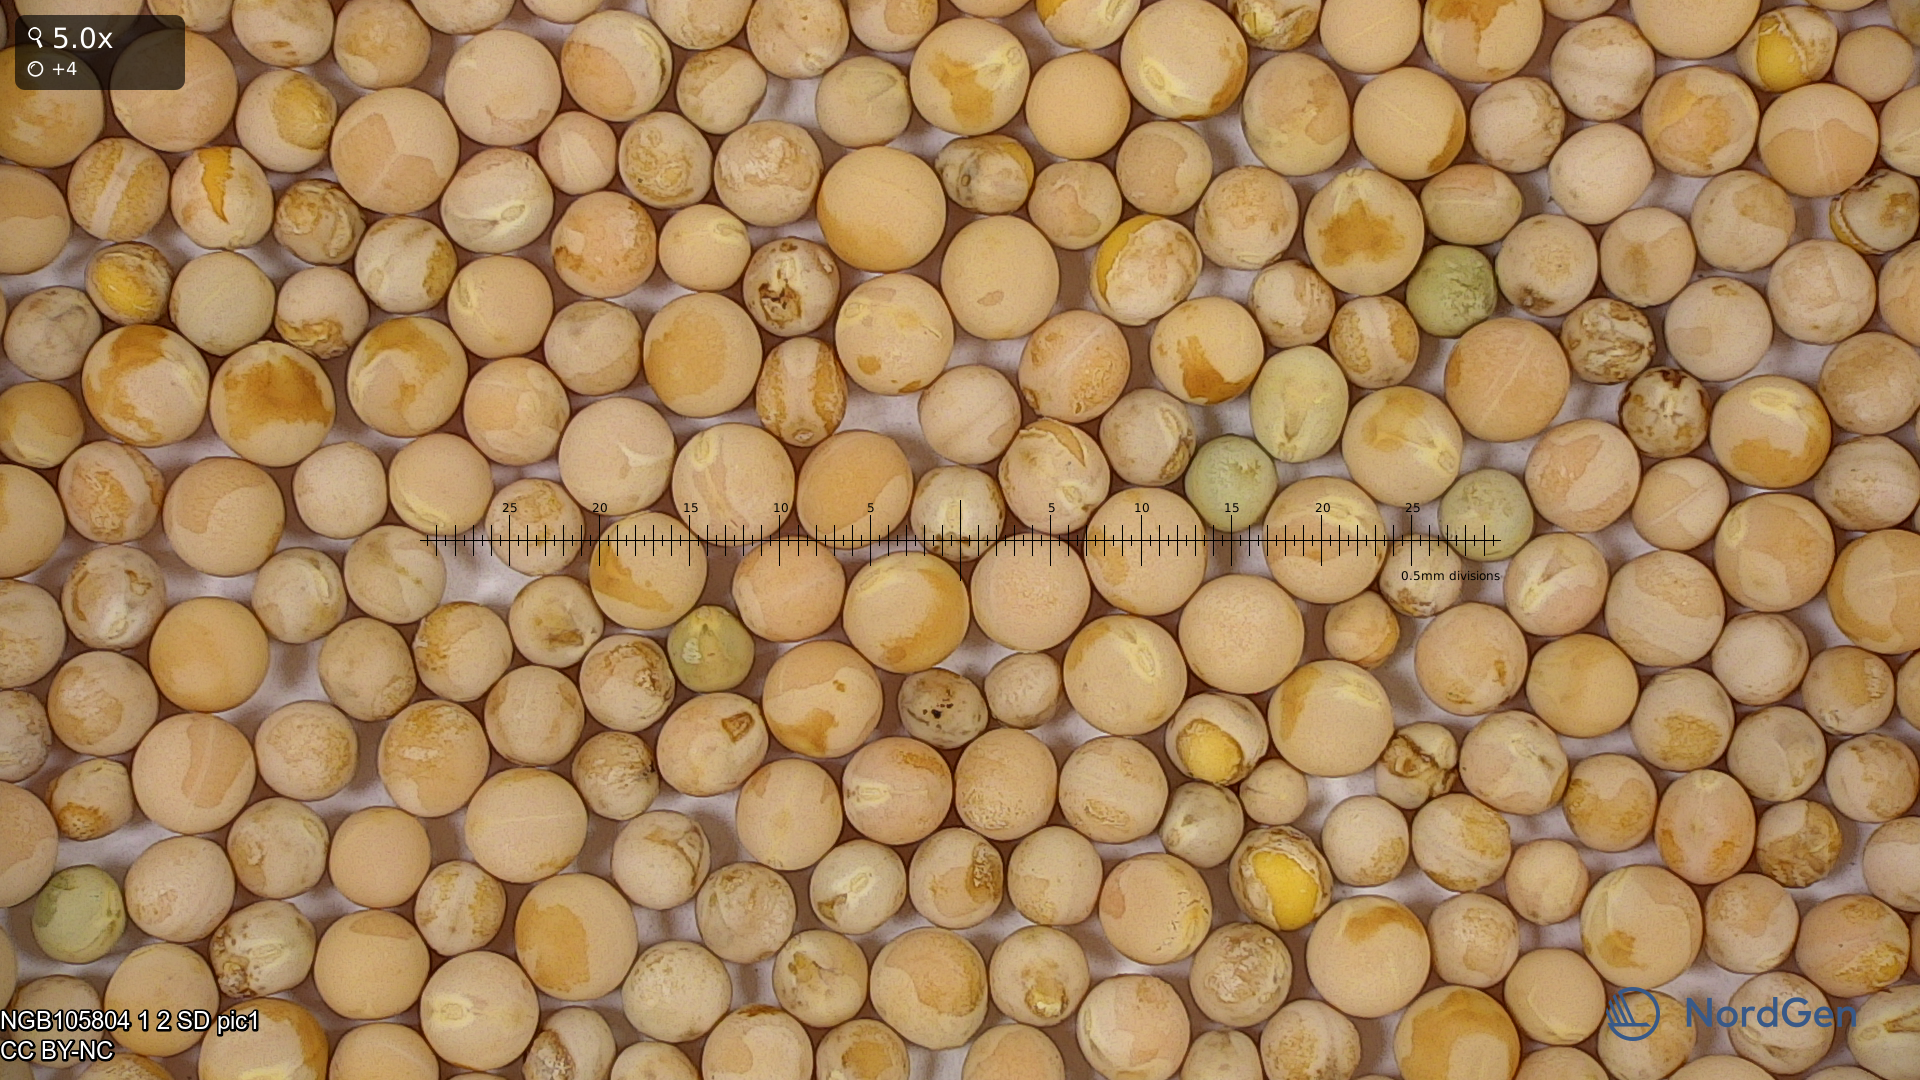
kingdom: Plantae
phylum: Tracheophyta
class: Magnoliopsida
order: Fabales
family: Fabaceae
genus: Lathyrus
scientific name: Lathyrus oleraceus
